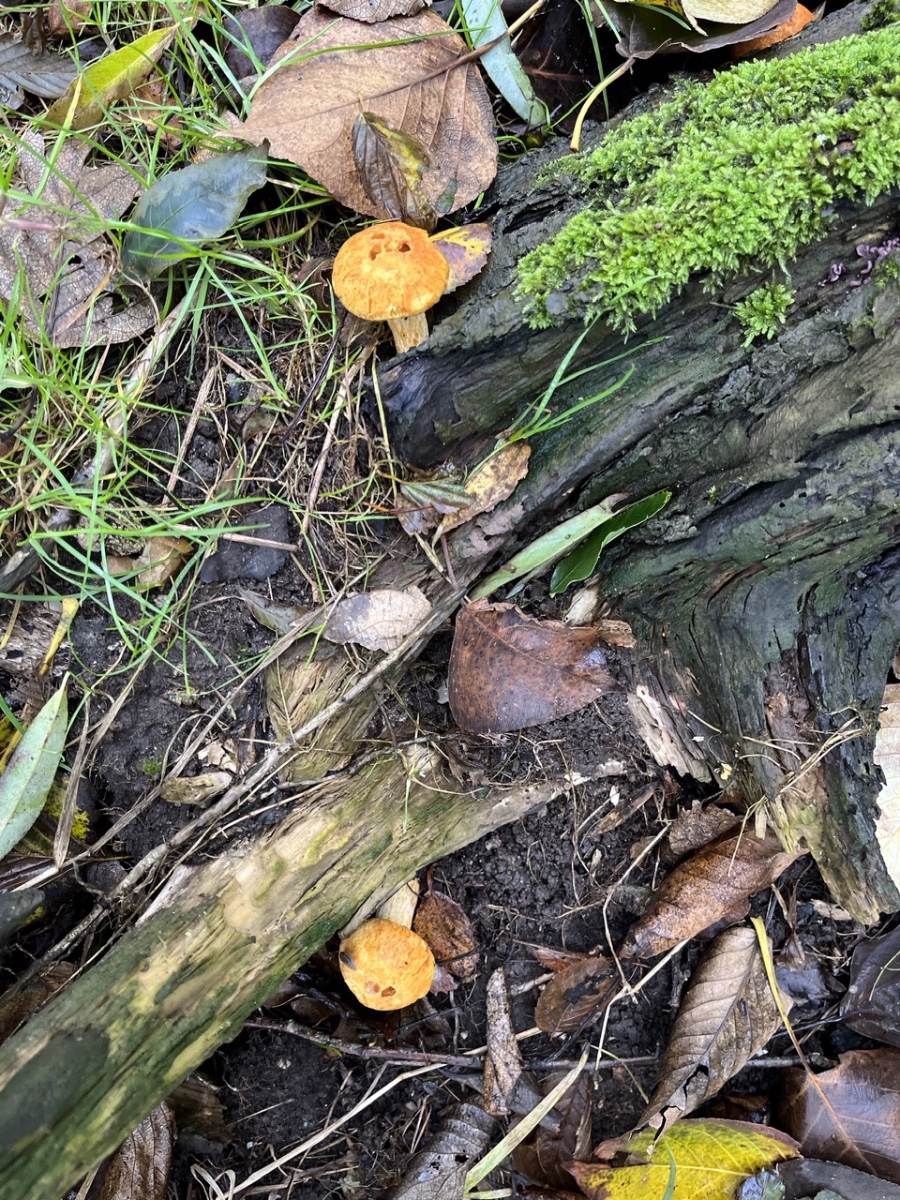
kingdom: Fungi
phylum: Basidiomycota
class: Agaricomycetes
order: Agaricales
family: Hymenogastraceae
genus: Gymnopilus
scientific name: Gymnopilus spectabilis
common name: fibret flammehat
